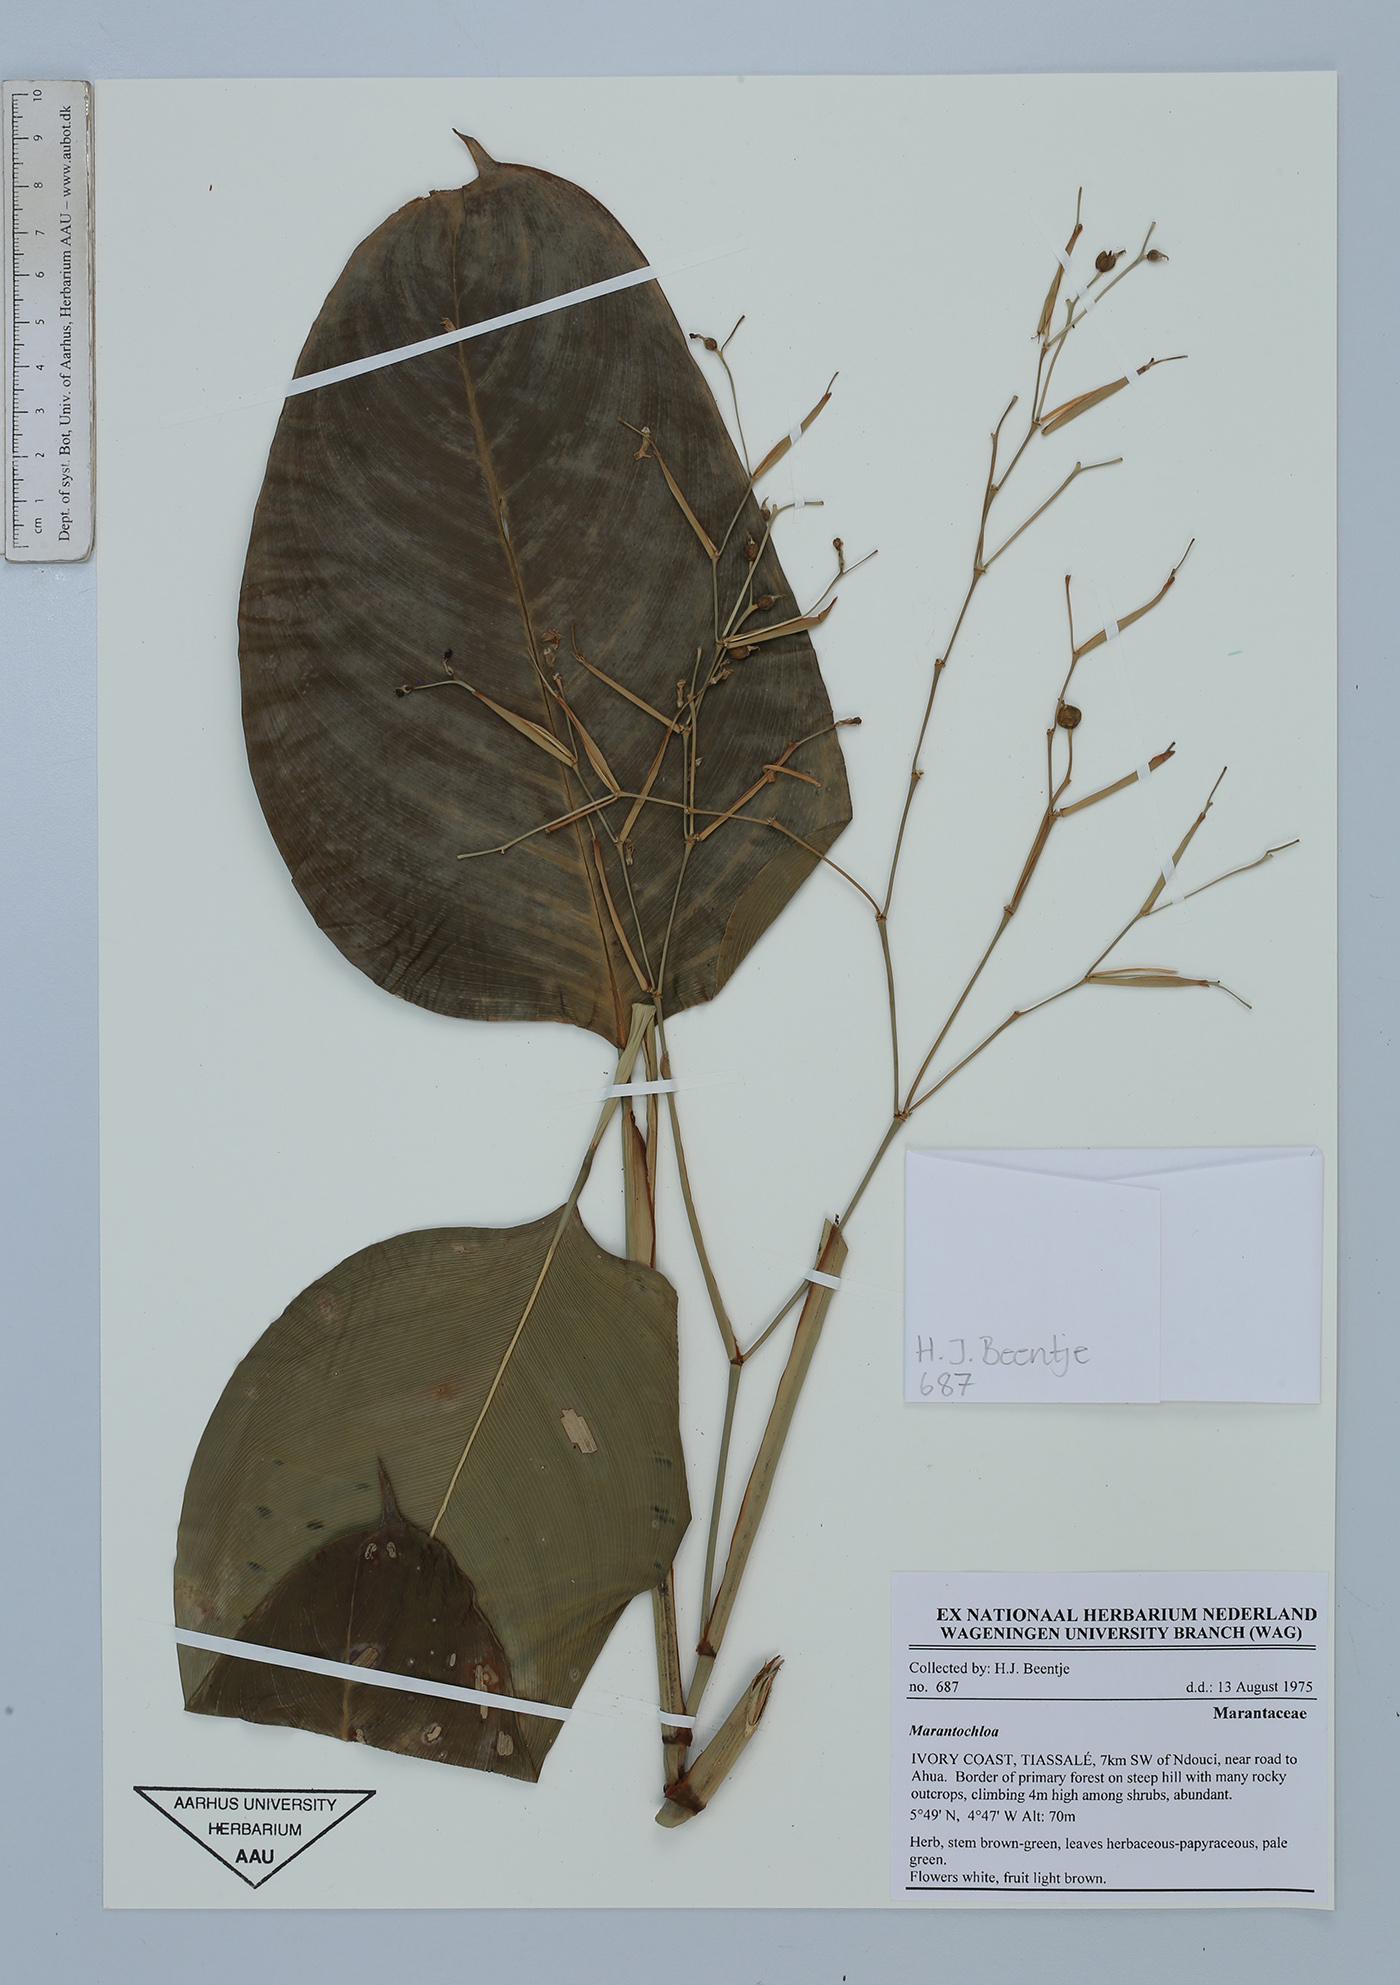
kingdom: Plantae
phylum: Tracheophyta
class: Liliopsida
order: Zingiberales
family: Marantaceae
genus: Marantochloa
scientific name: Marantochloa
